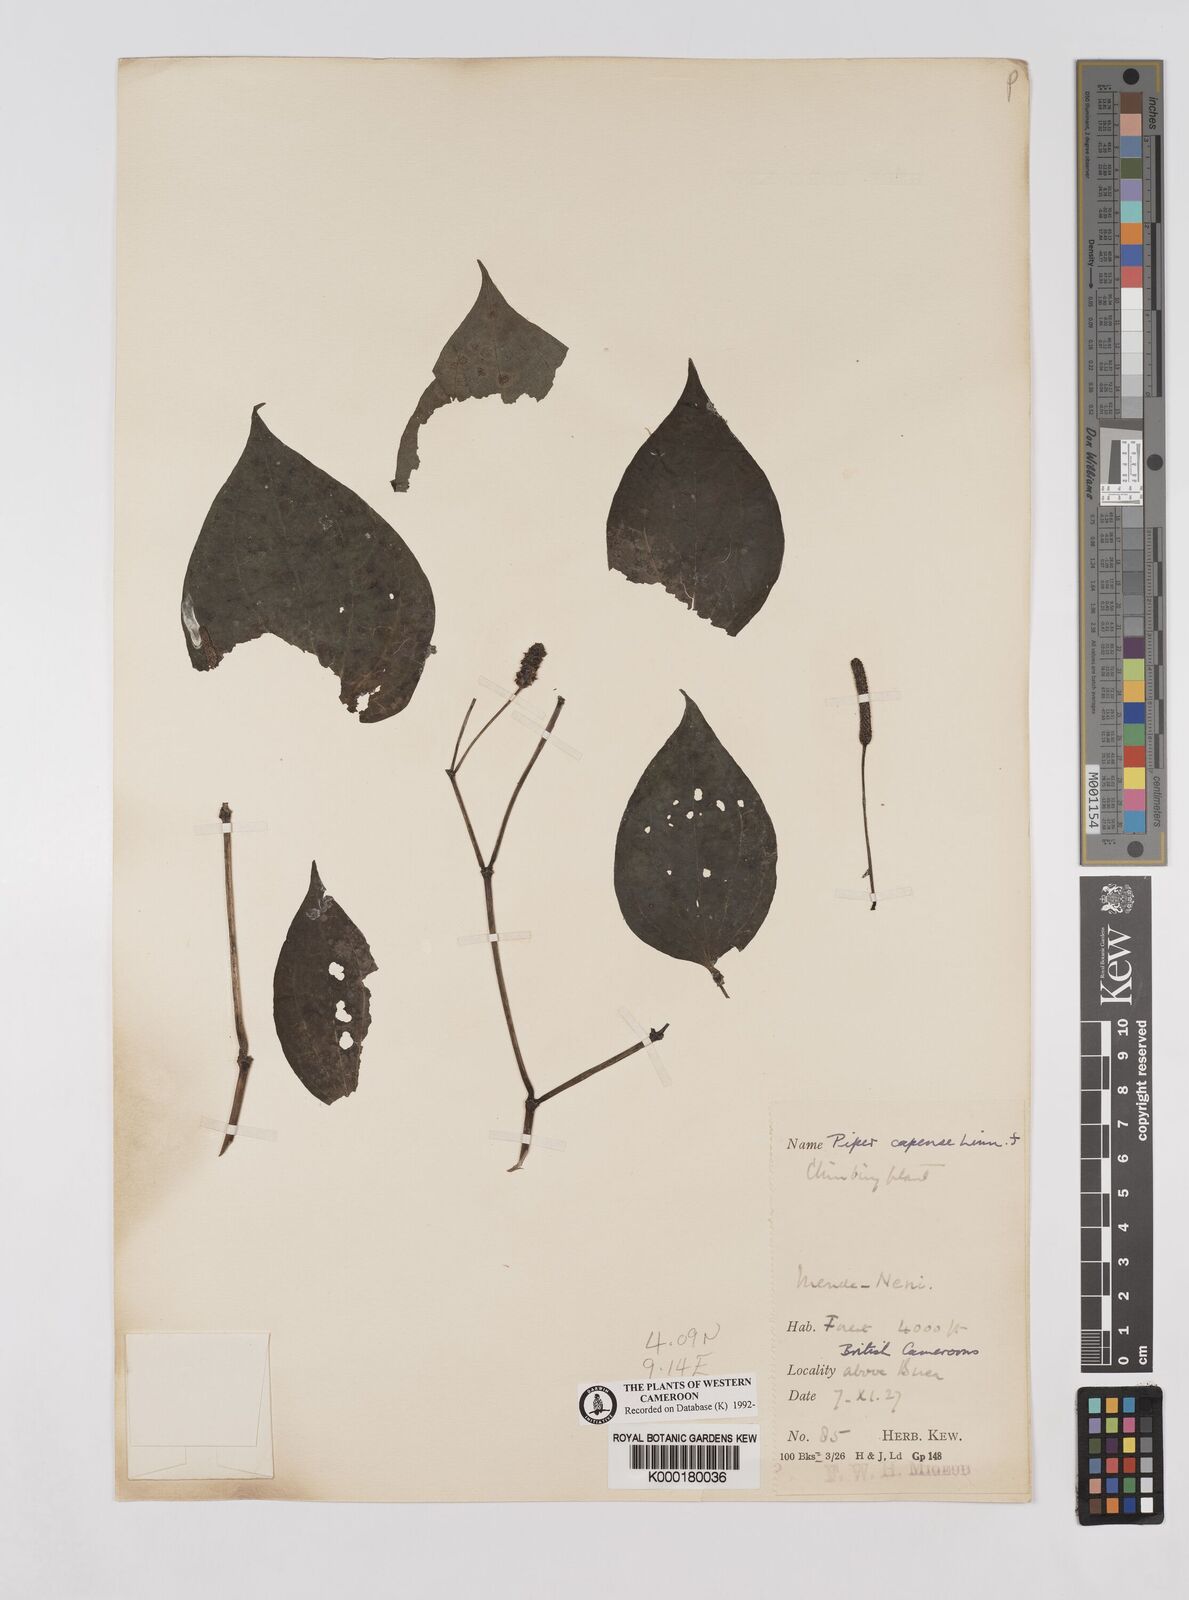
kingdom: Plantae
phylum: Tracheophyta
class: Magnoliopsida
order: Piperales
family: Piperaceae
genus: Piper
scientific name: Piper capense
